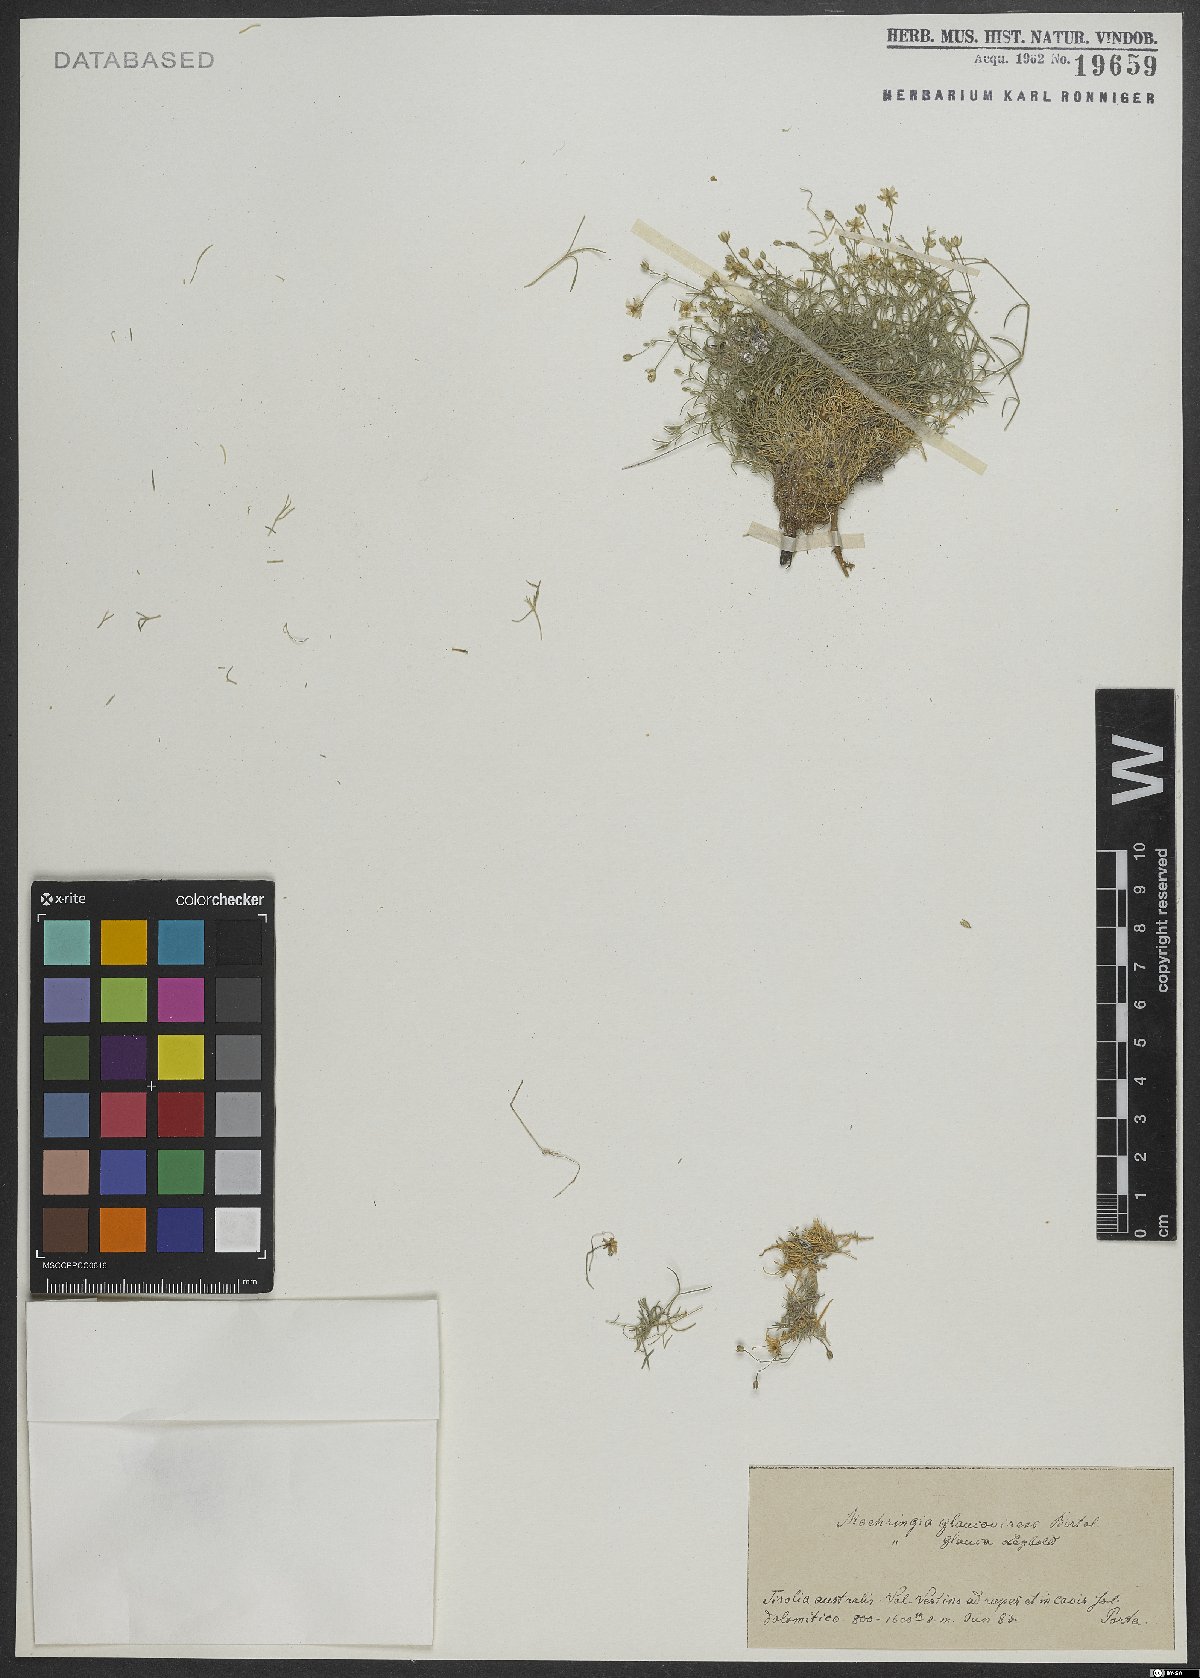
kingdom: Plantae
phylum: Tracheophyta
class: Magnoliopsida
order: Caryophyllales
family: Caryophyllaceae
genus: Moehringia
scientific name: Moehringia glaucovirens
